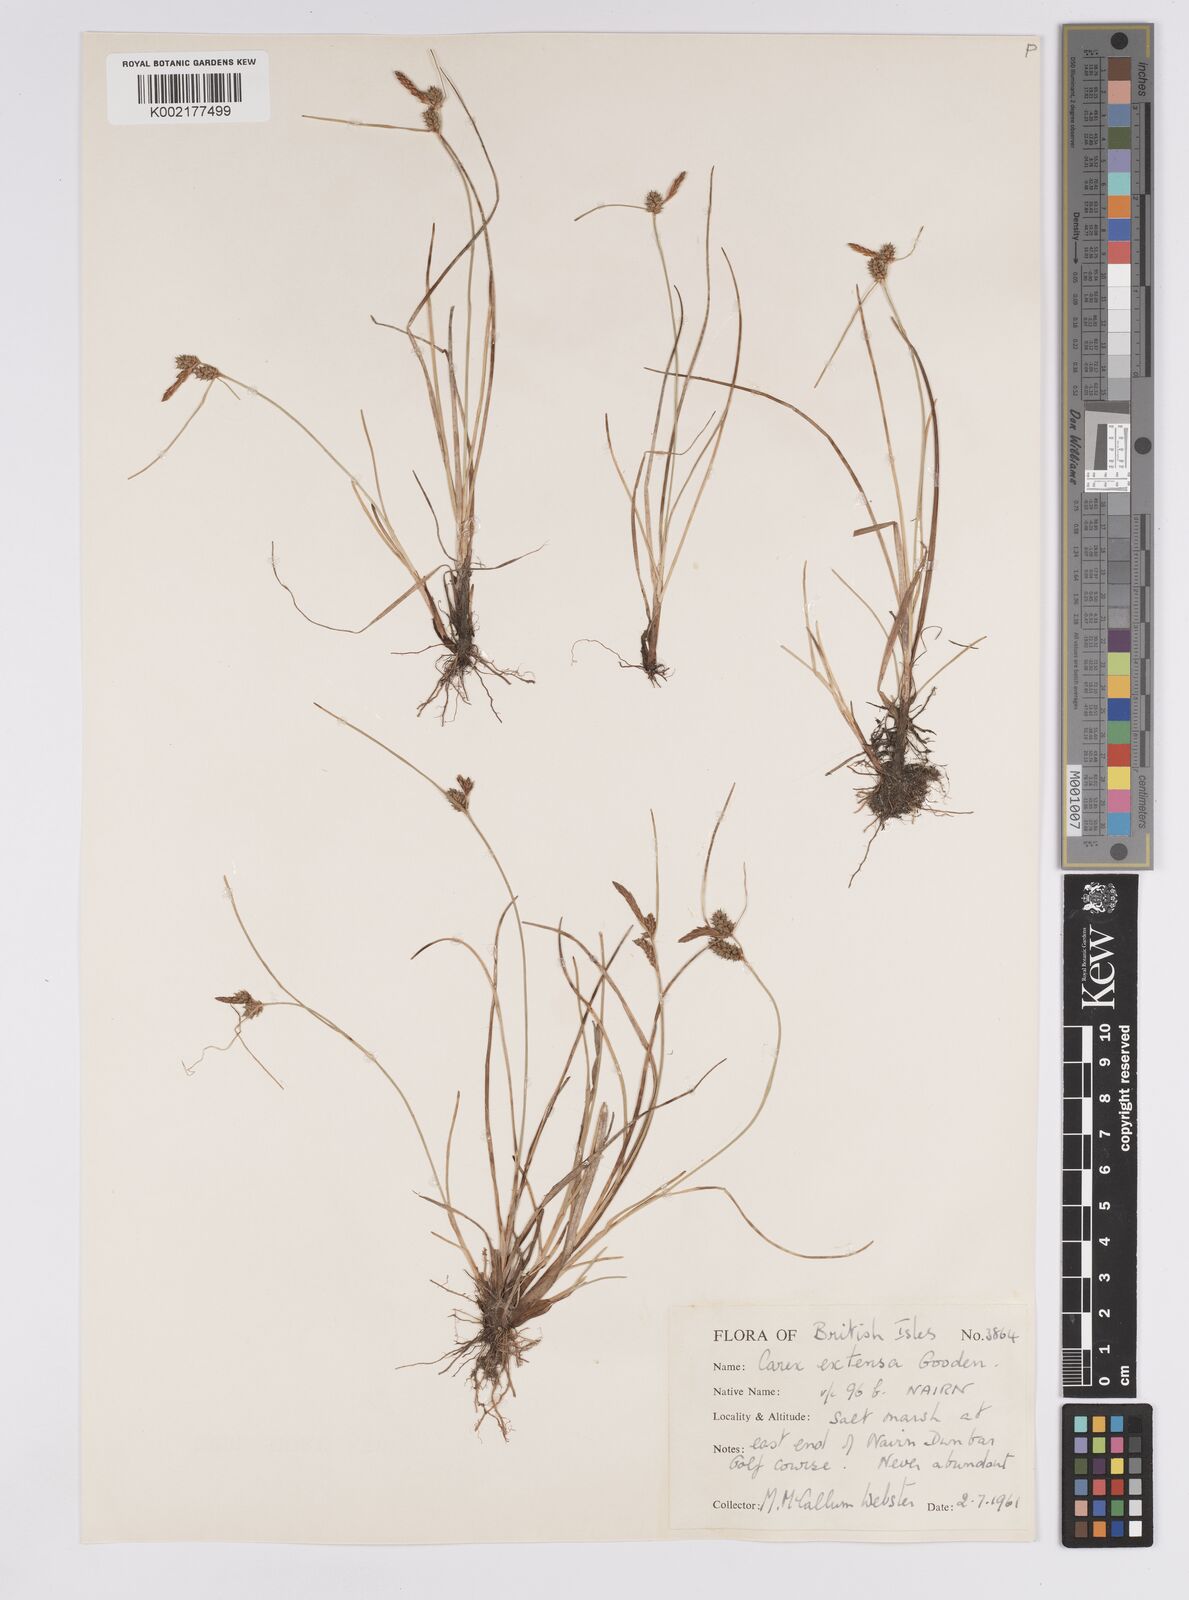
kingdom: Plantae
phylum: Tracheophyta
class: Liliopsida
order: Poales
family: Cyperaceae
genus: Carex
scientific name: Carex extensa
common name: Long-bracted sedge
